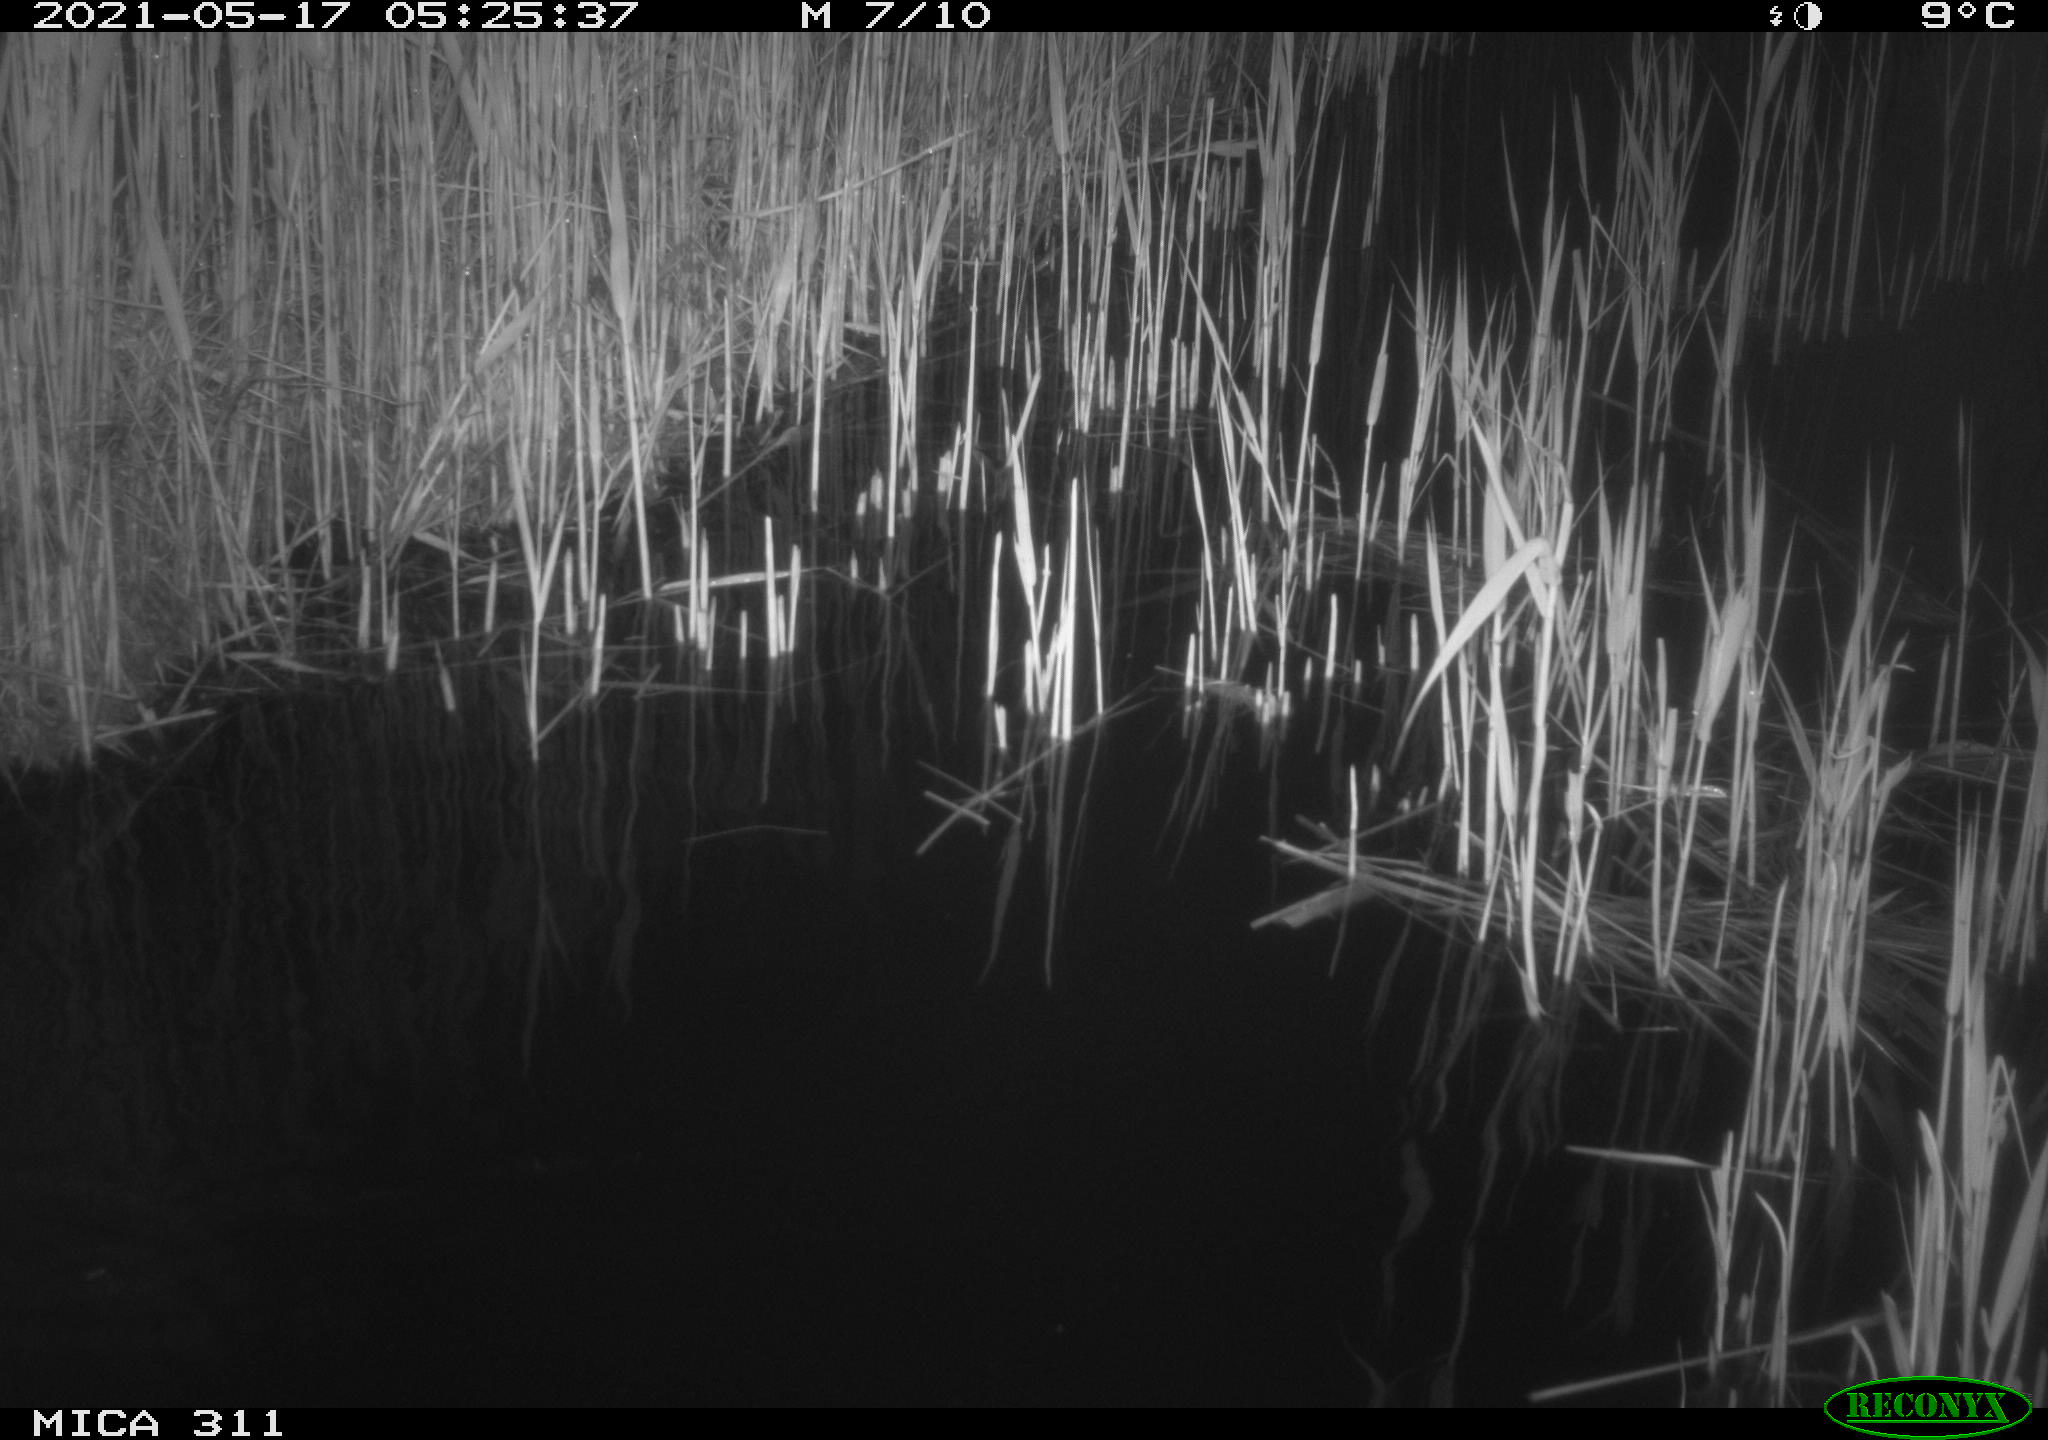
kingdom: Animalia
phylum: Chordata
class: Aves
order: Gruiformes
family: Rallidae
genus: Gallinula
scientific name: Gallinula chloropus
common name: Common moorhen
